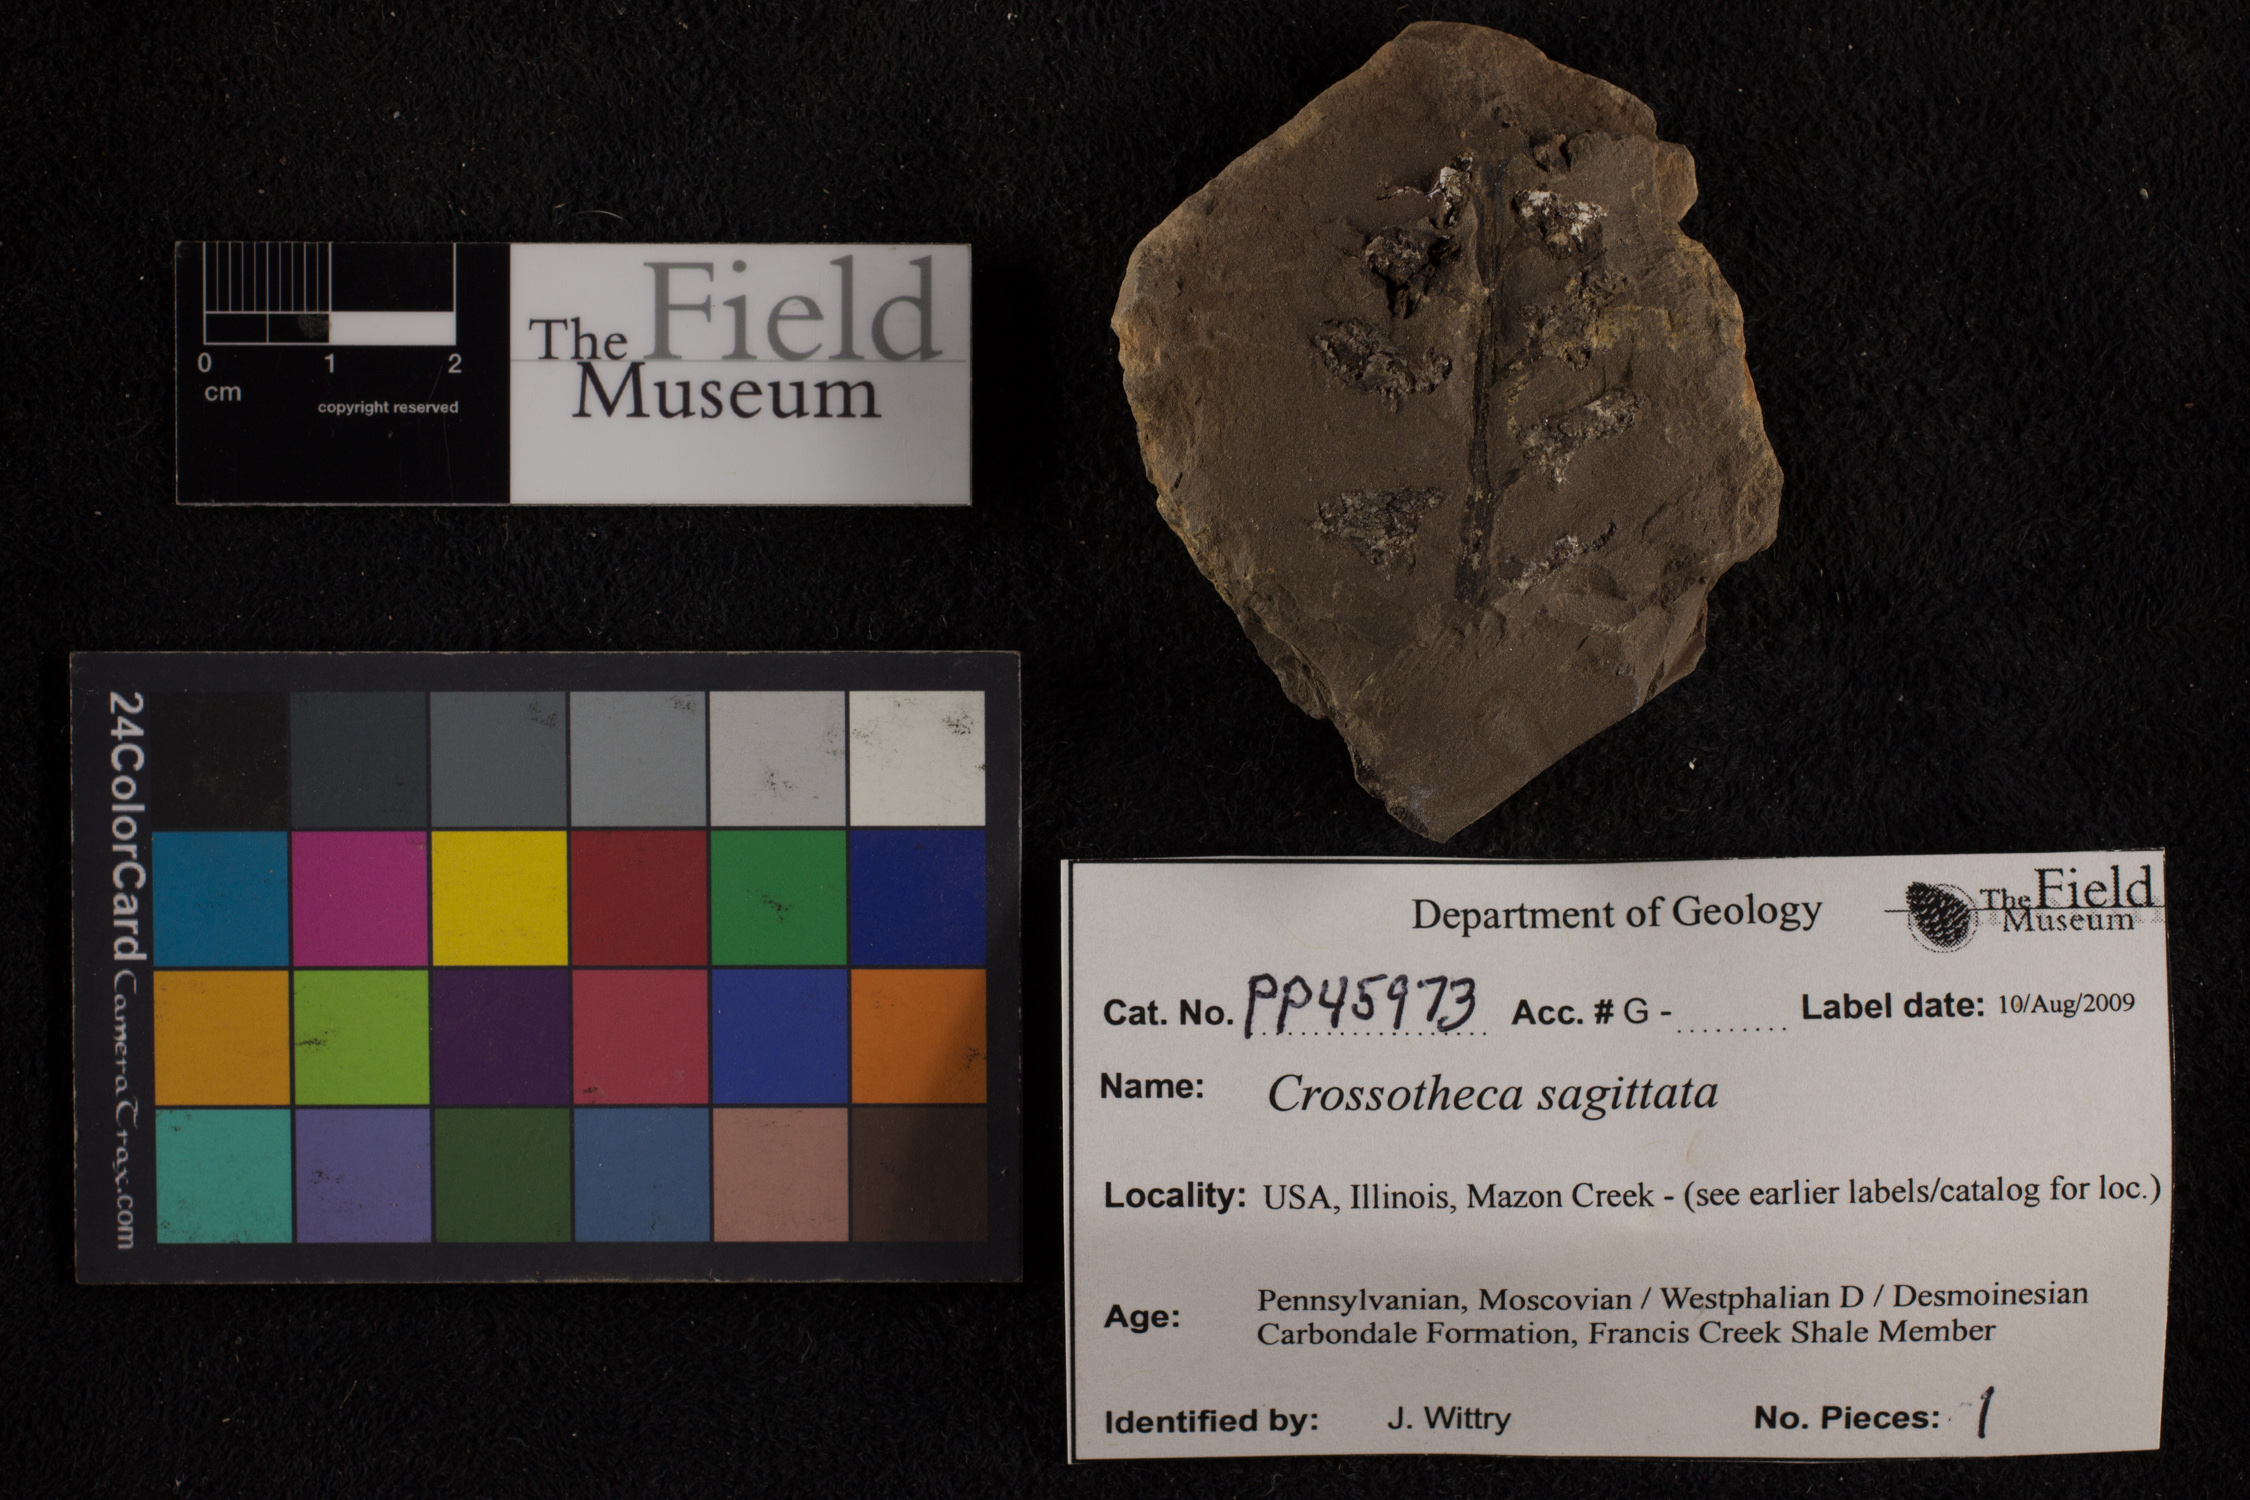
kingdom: Plantae
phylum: Tracheophyta
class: Polypodiopsida
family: Stauropteridaceae
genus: Crossotheca
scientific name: Crossotheca
